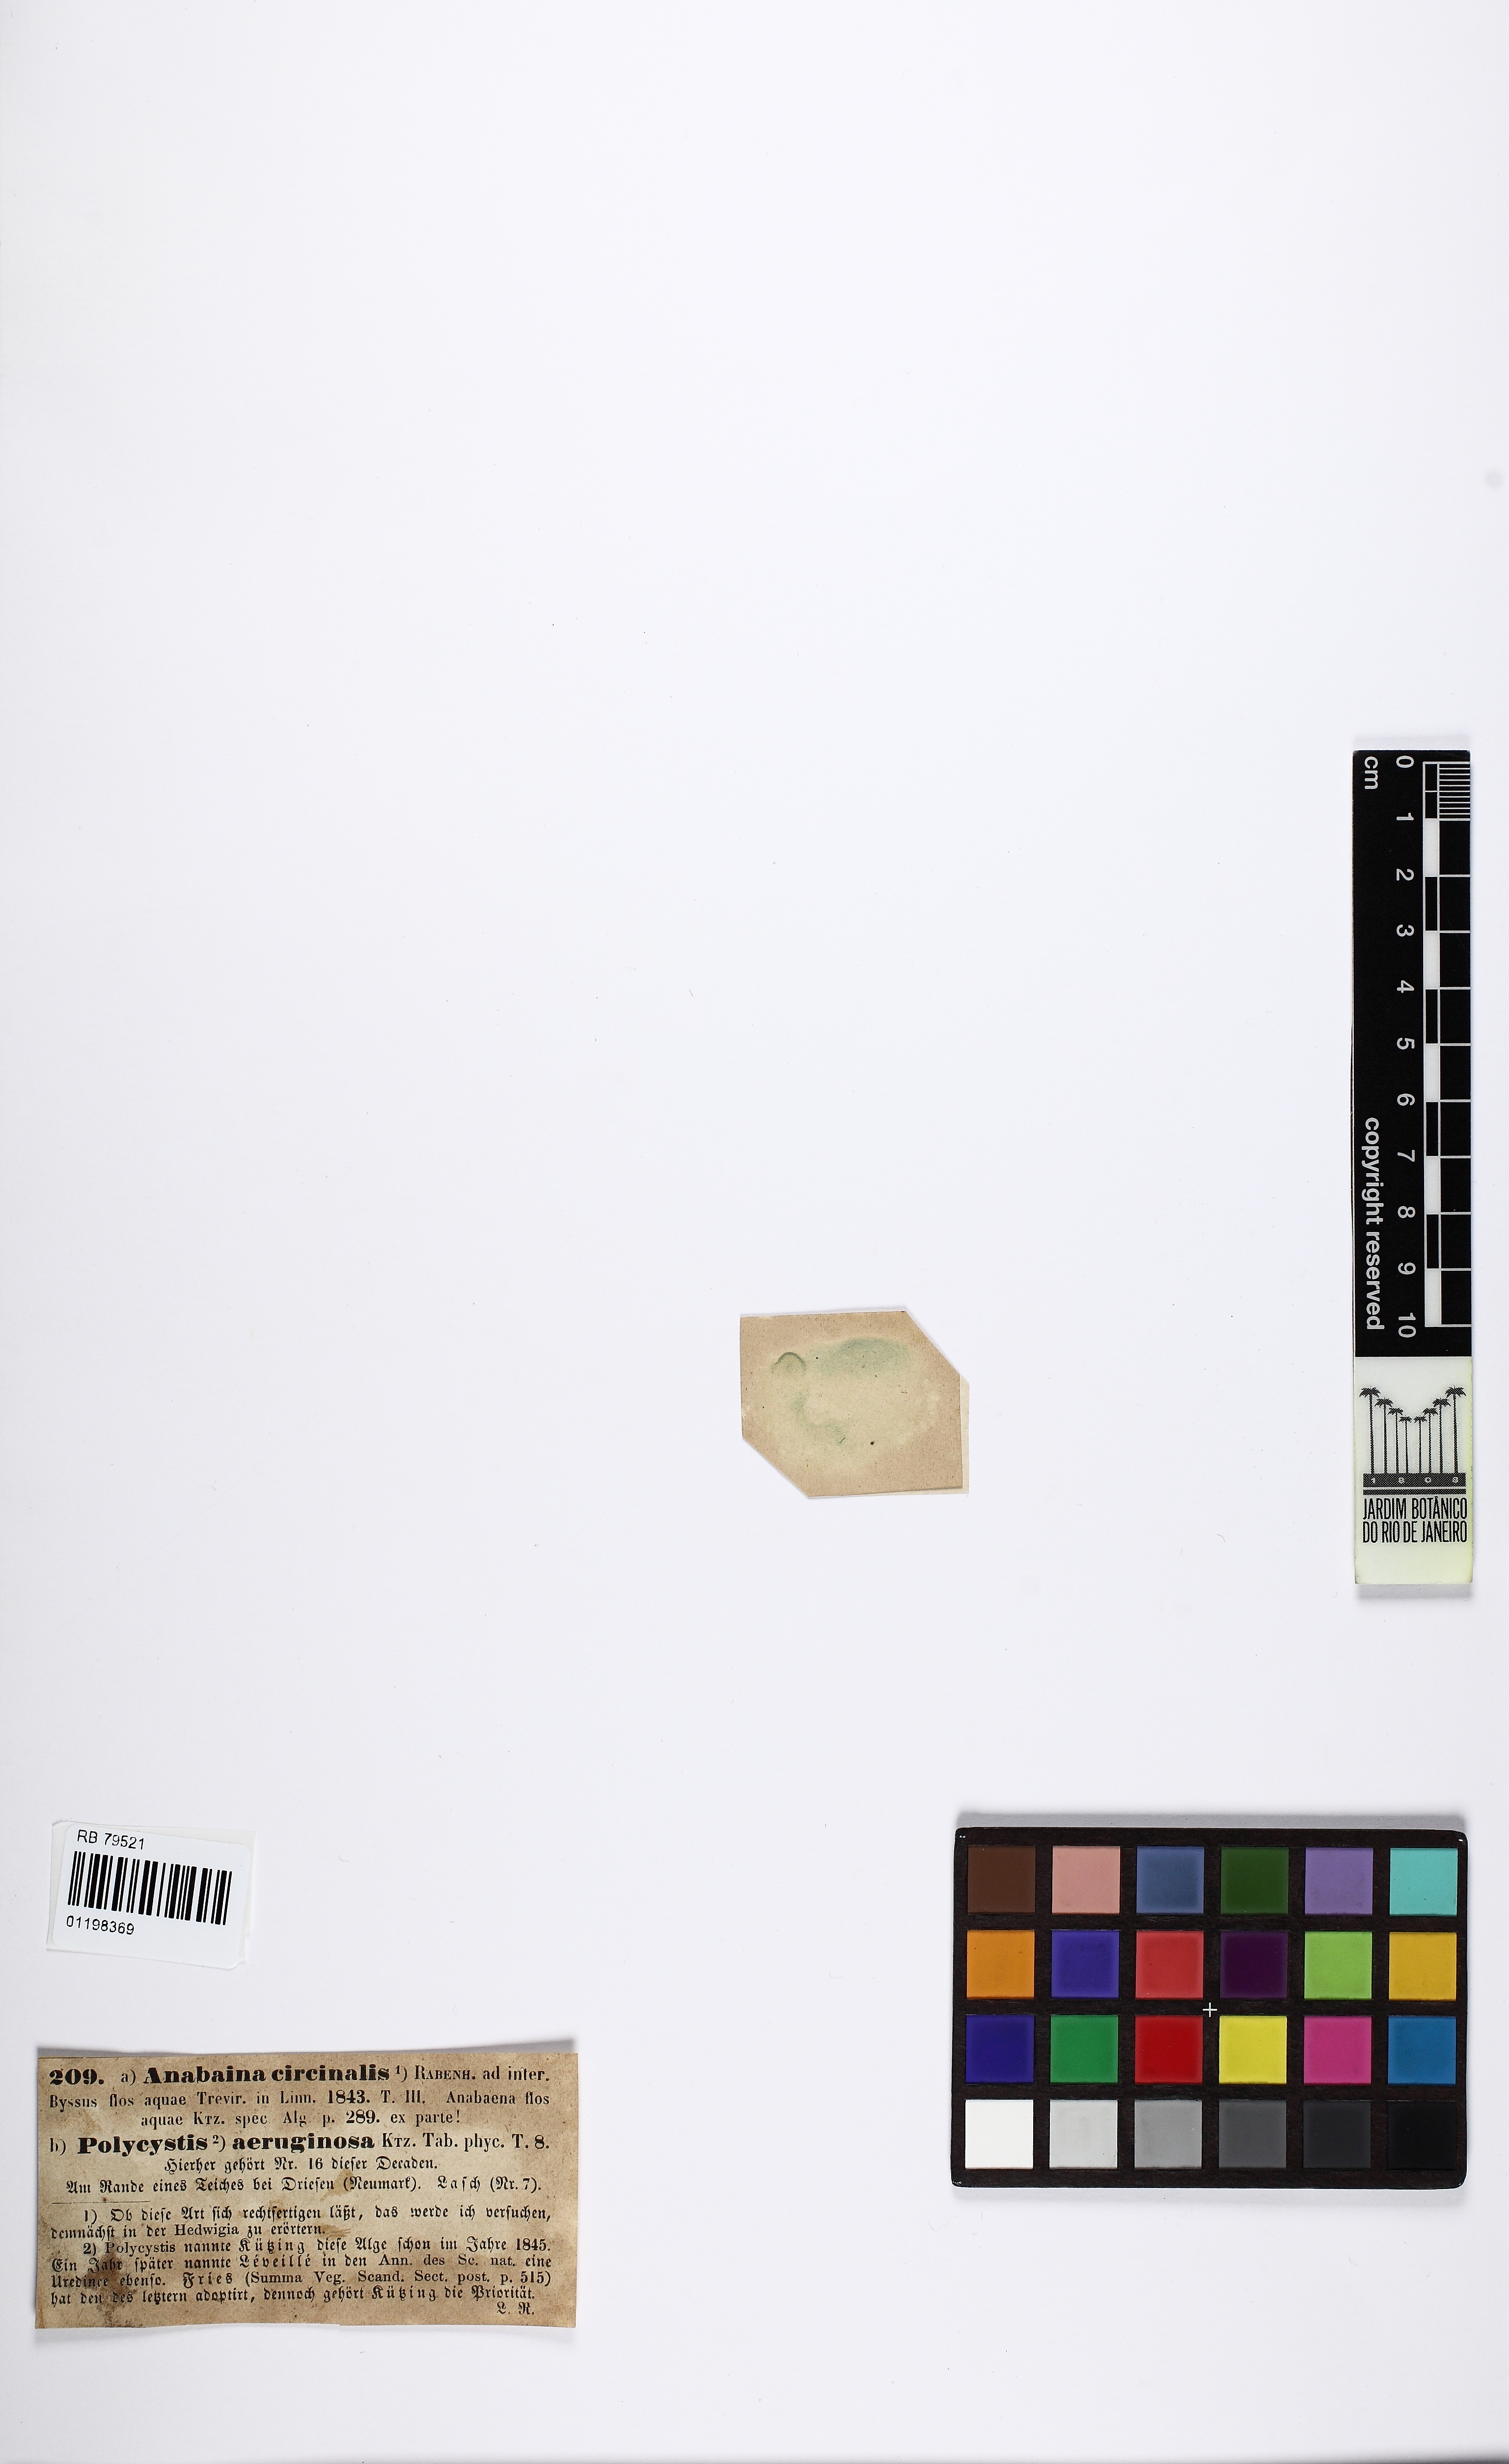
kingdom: Bacteria
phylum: Cyanobacteria
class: Cyanobacteriia
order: Cyanobacteriales
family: Nostocaceae
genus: Dolichospermum
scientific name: Dolichospermum circinale
